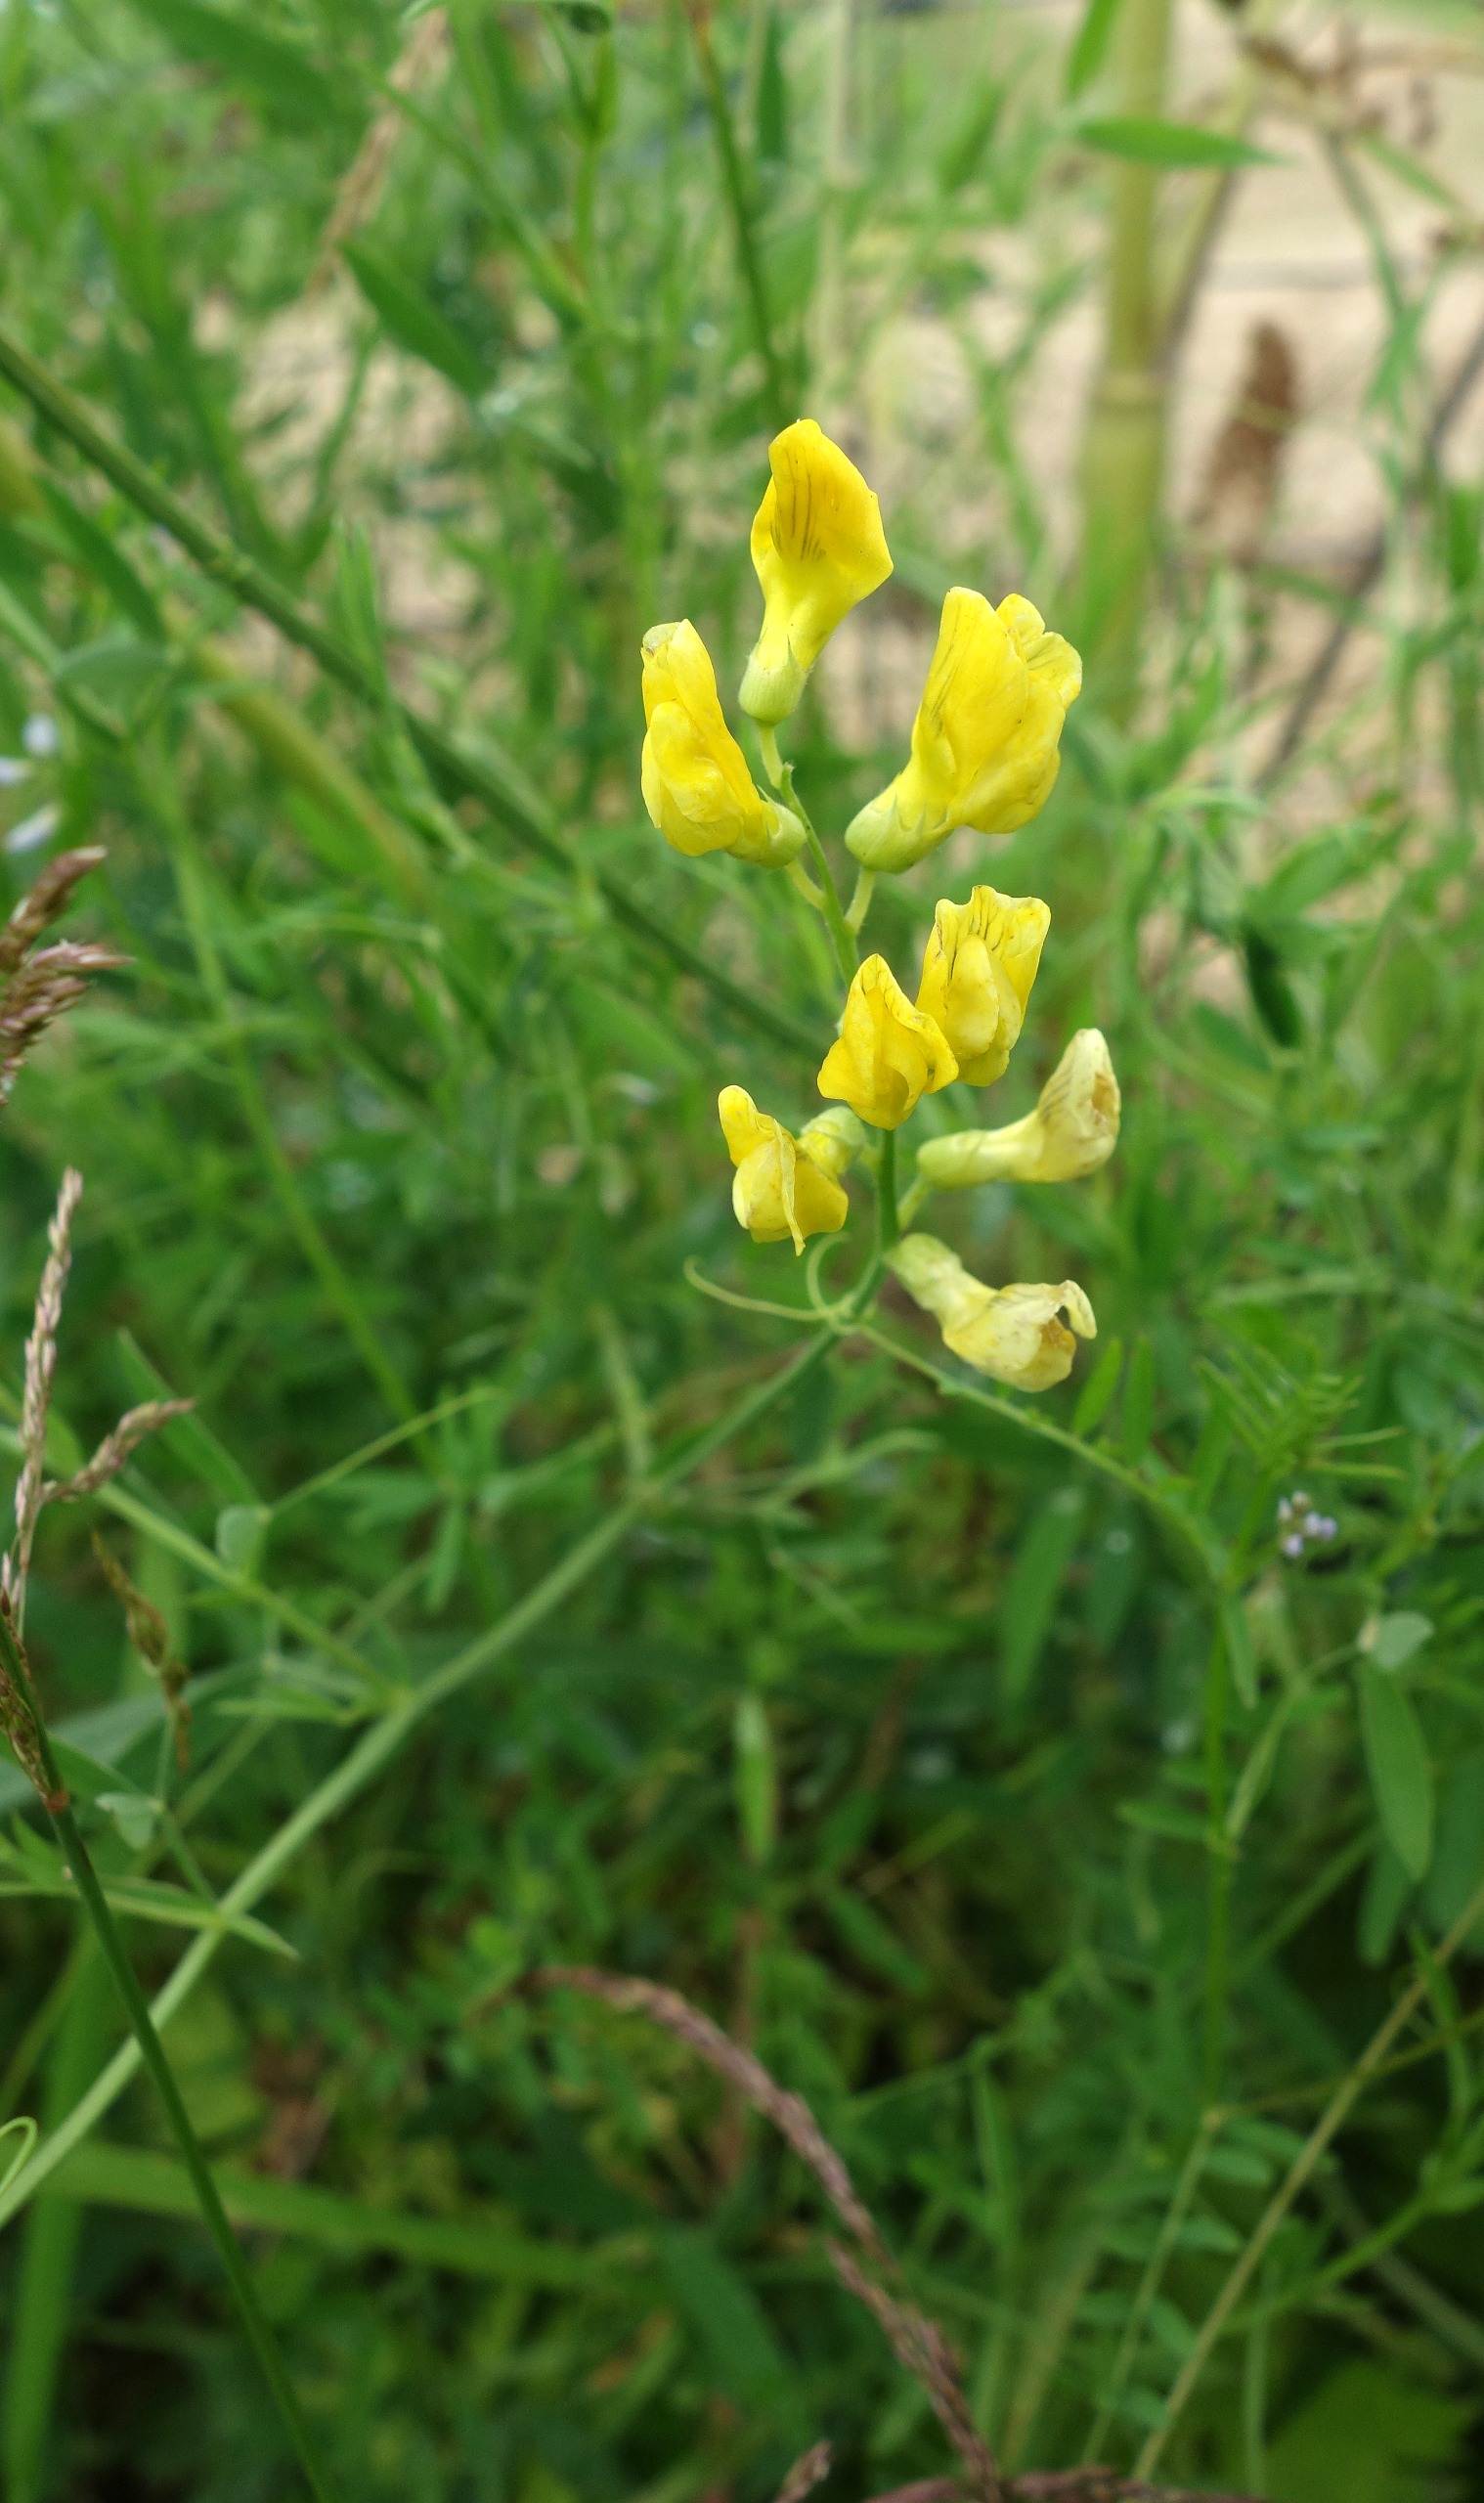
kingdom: Plantae
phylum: Tracheophyta
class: Magnoliopsida
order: Fabales
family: Fabaceae
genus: Lathyrus
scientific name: Lathyrus pratensis
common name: Gul fladbælg
